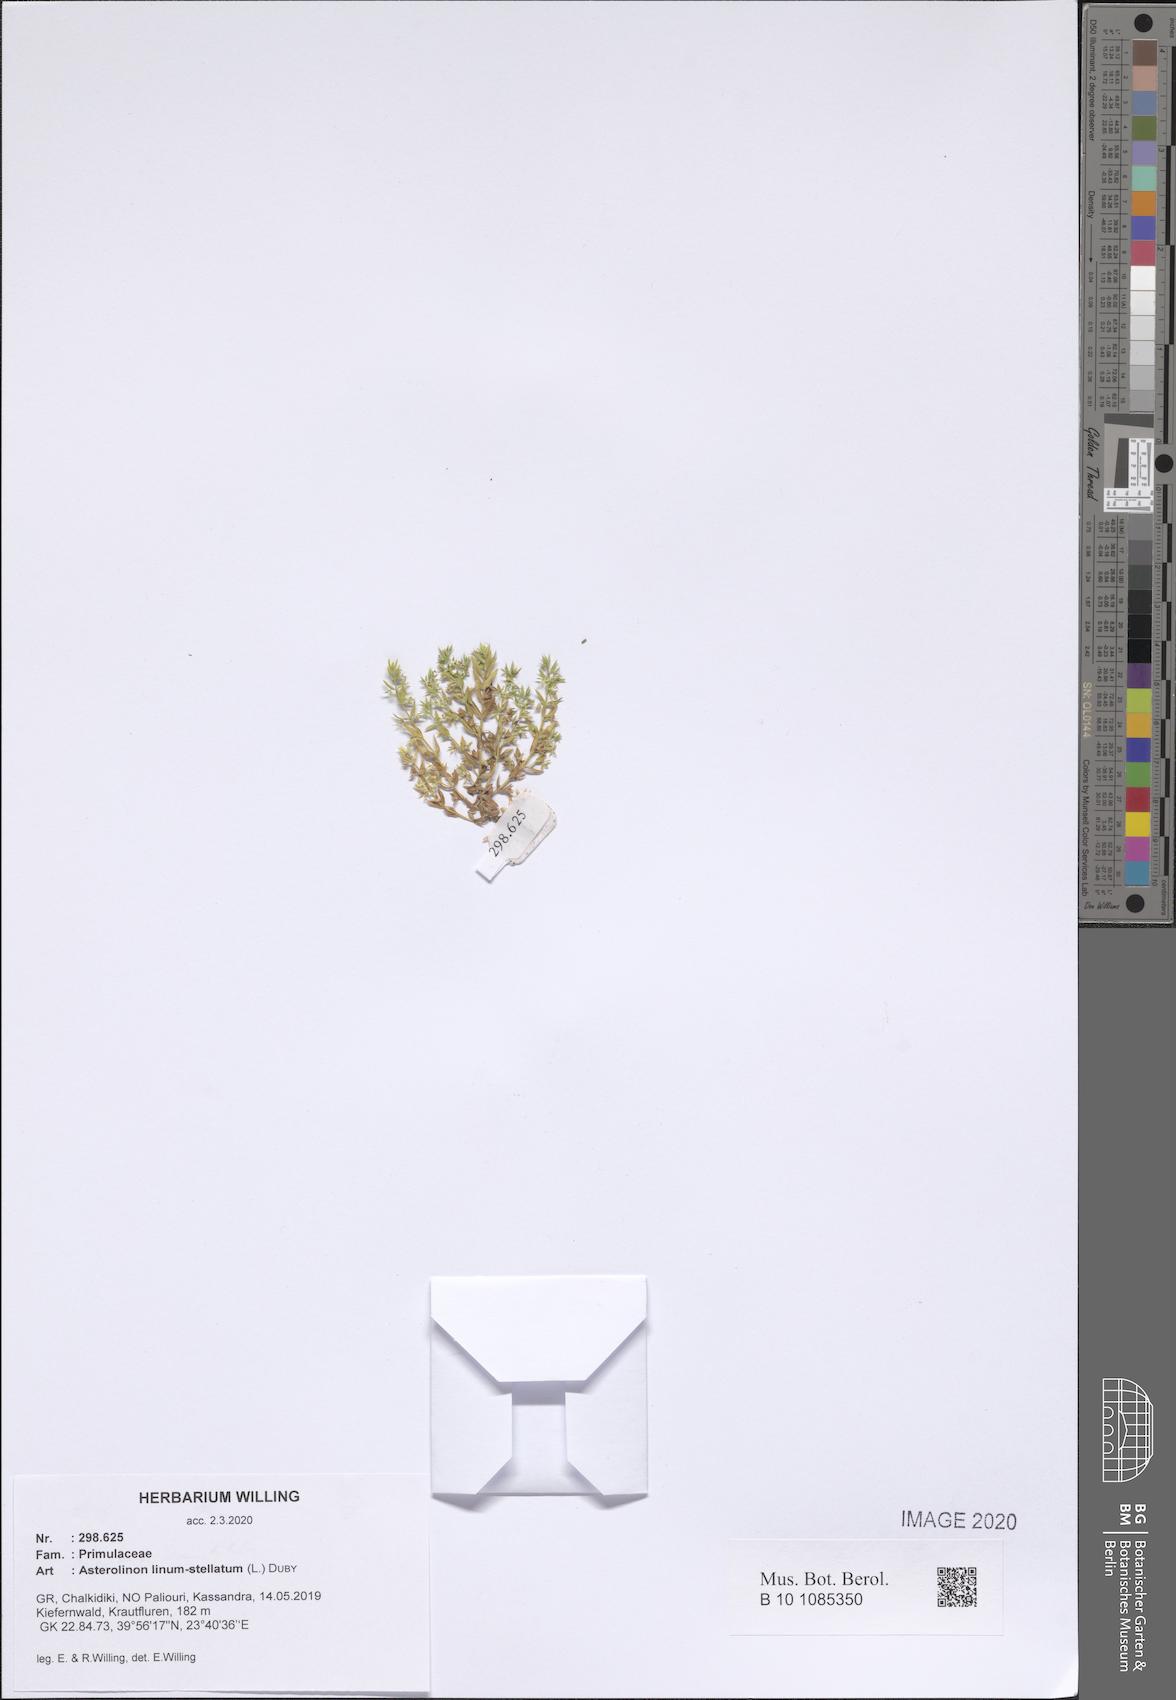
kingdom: Plantae
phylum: Tracheophyta
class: Magnoliopsida
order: Ericales
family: Primulaceae
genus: Lysimachia
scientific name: Lysimachia linum-stellatum
